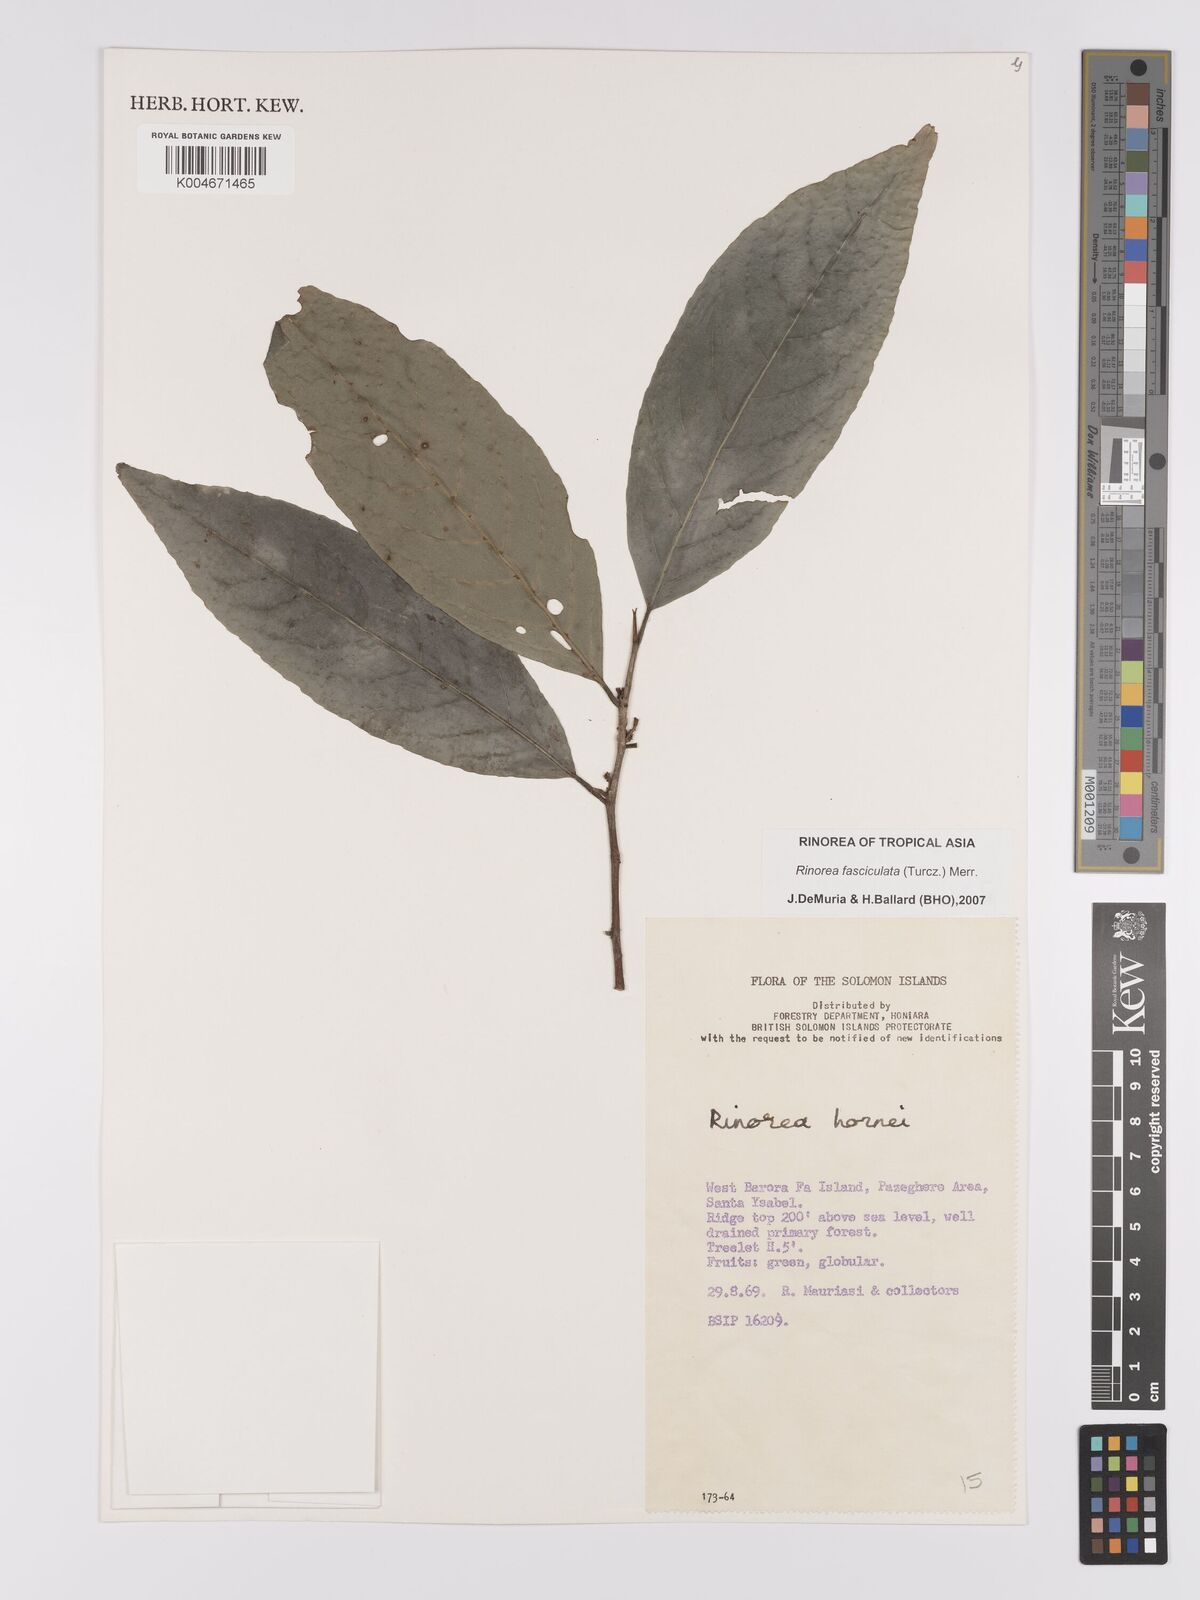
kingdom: Plantae
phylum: Tracheophyta
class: Magnoliopsida
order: Malpighiales
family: Violaceae
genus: Rinorea
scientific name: Rinorea bengalensis
